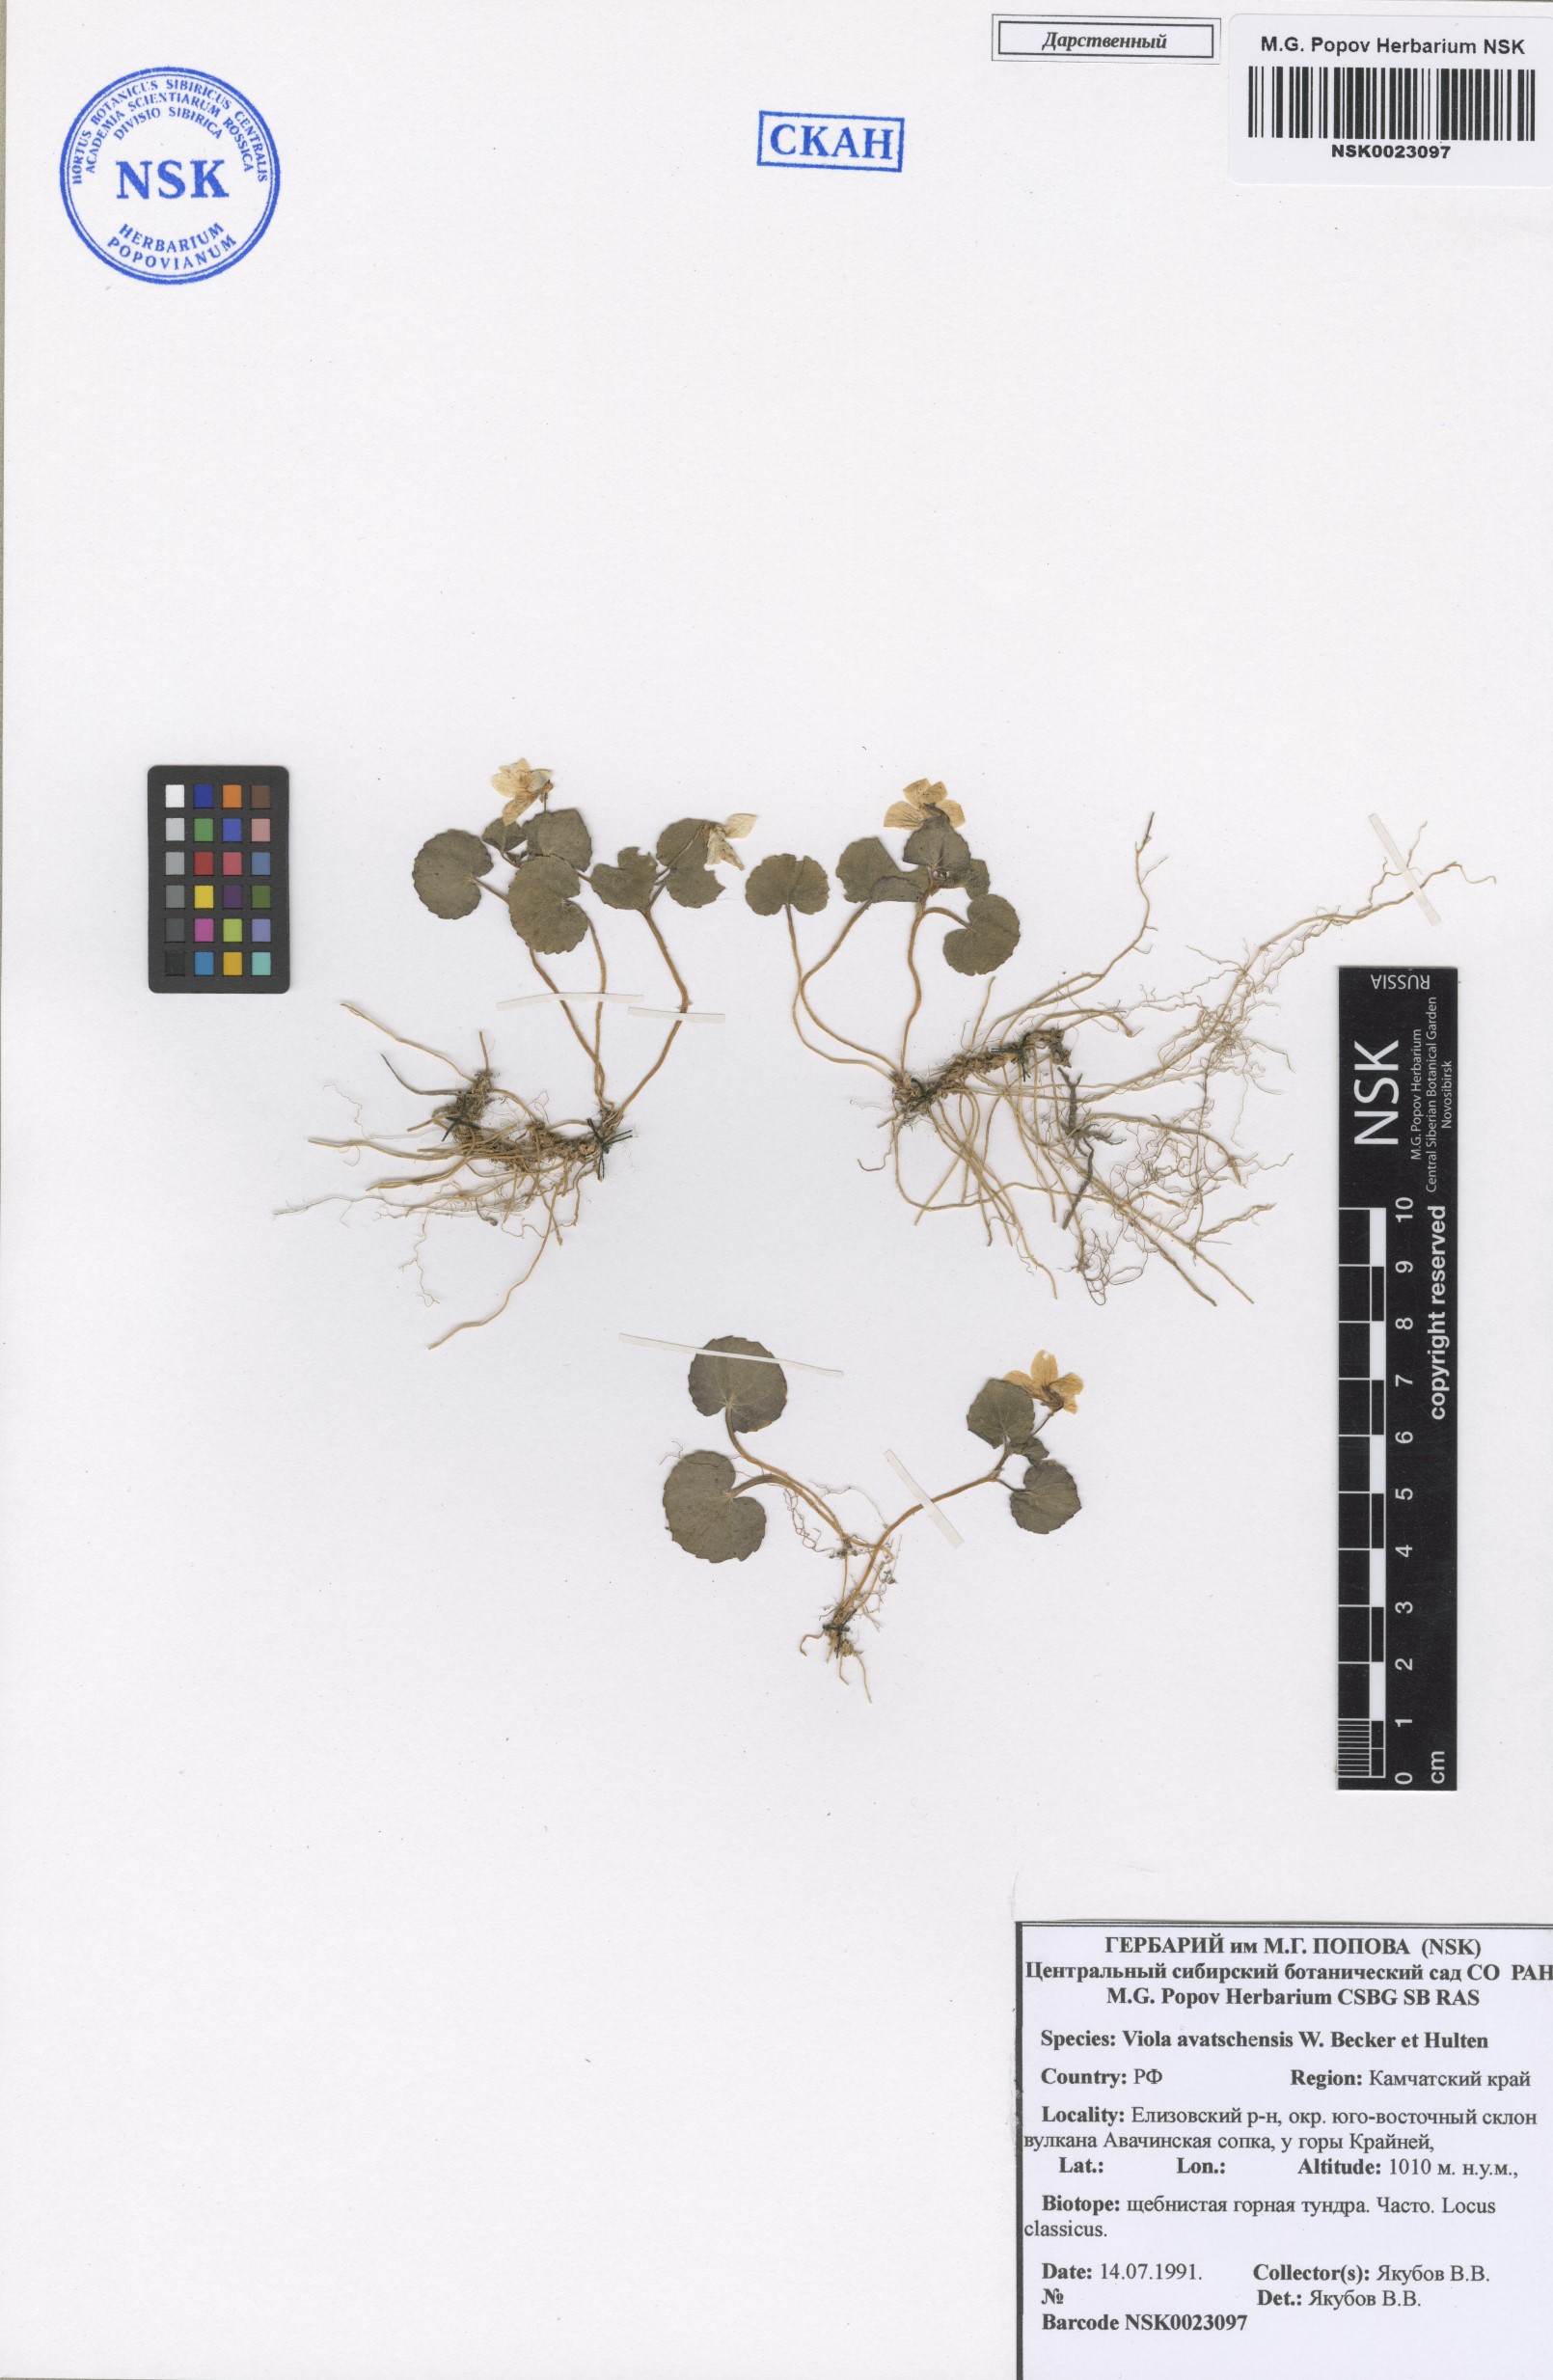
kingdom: Plantae
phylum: Tracheophyta
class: Magnoliopsida
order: Malpighiales
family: Violaceae
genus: Viola
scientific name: Viola crassa
